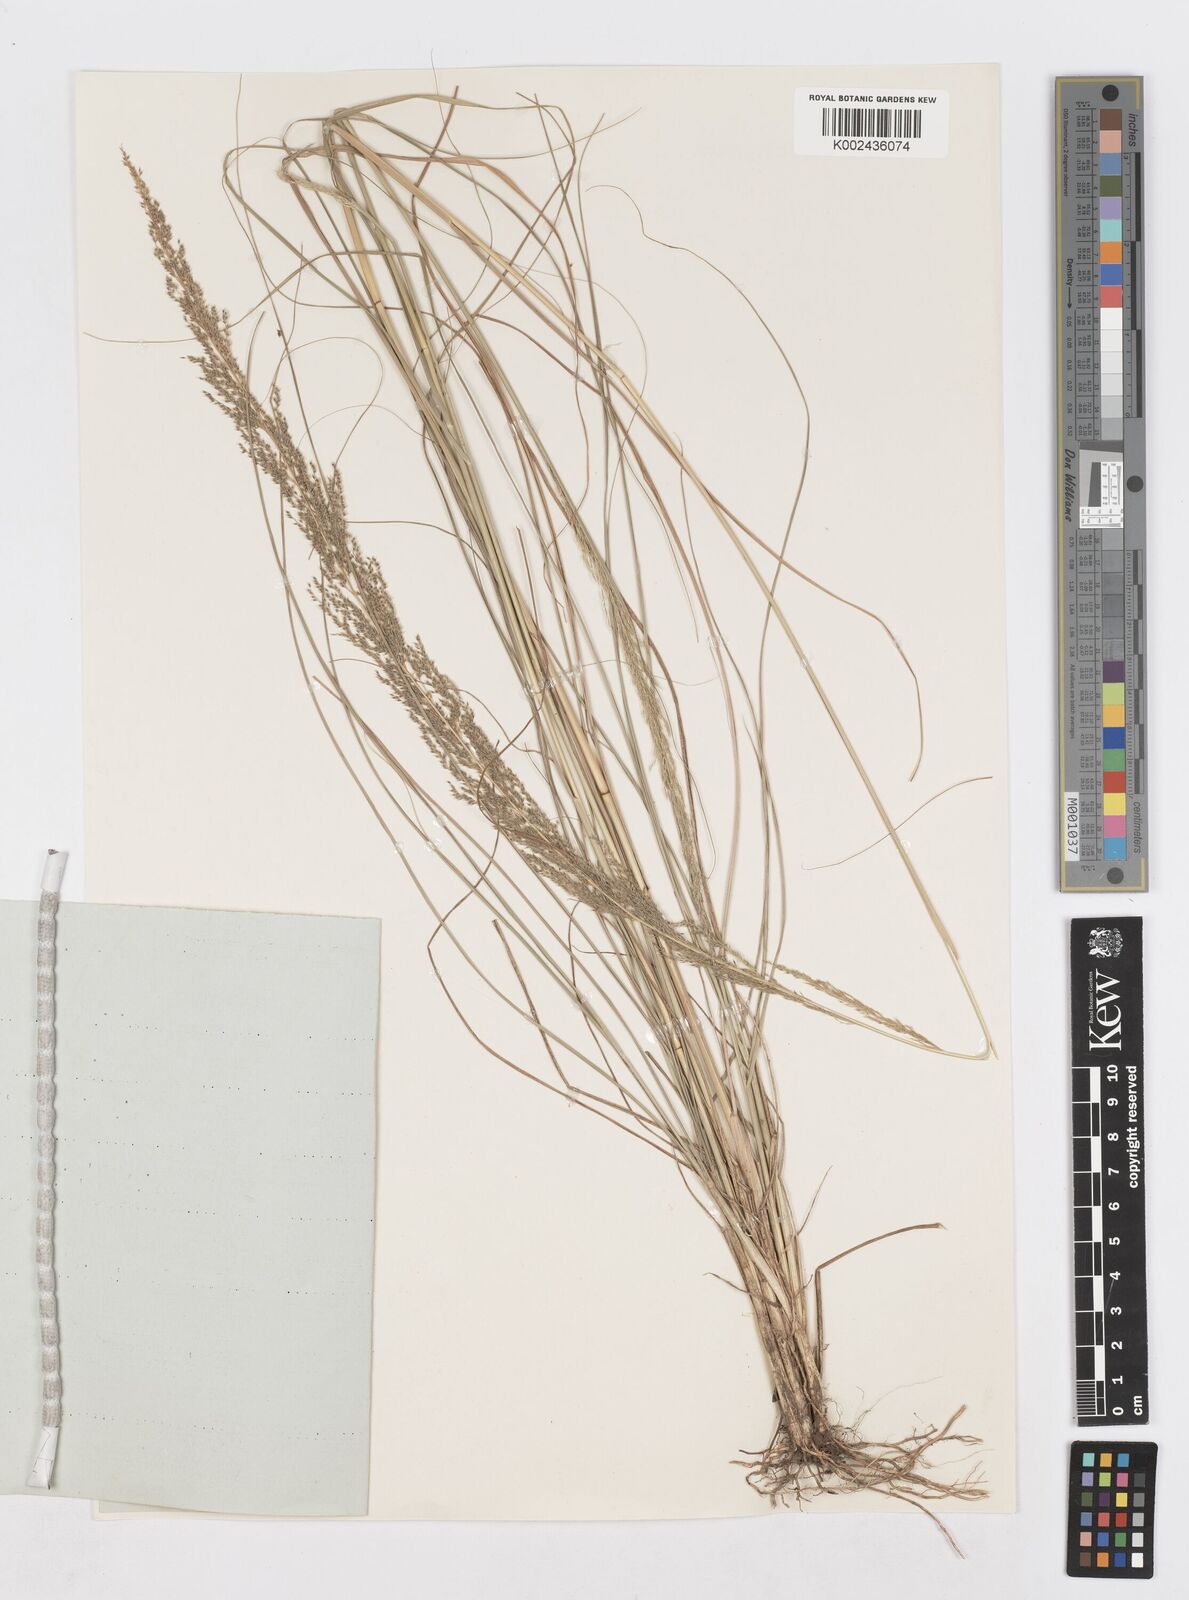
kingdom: Plantae
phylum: Tracheophyta
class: Liliopsida
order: Poales
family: Poaceae
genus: Sporobolus
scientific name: Sporobolus pyramidalis
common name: West indian dropseed
